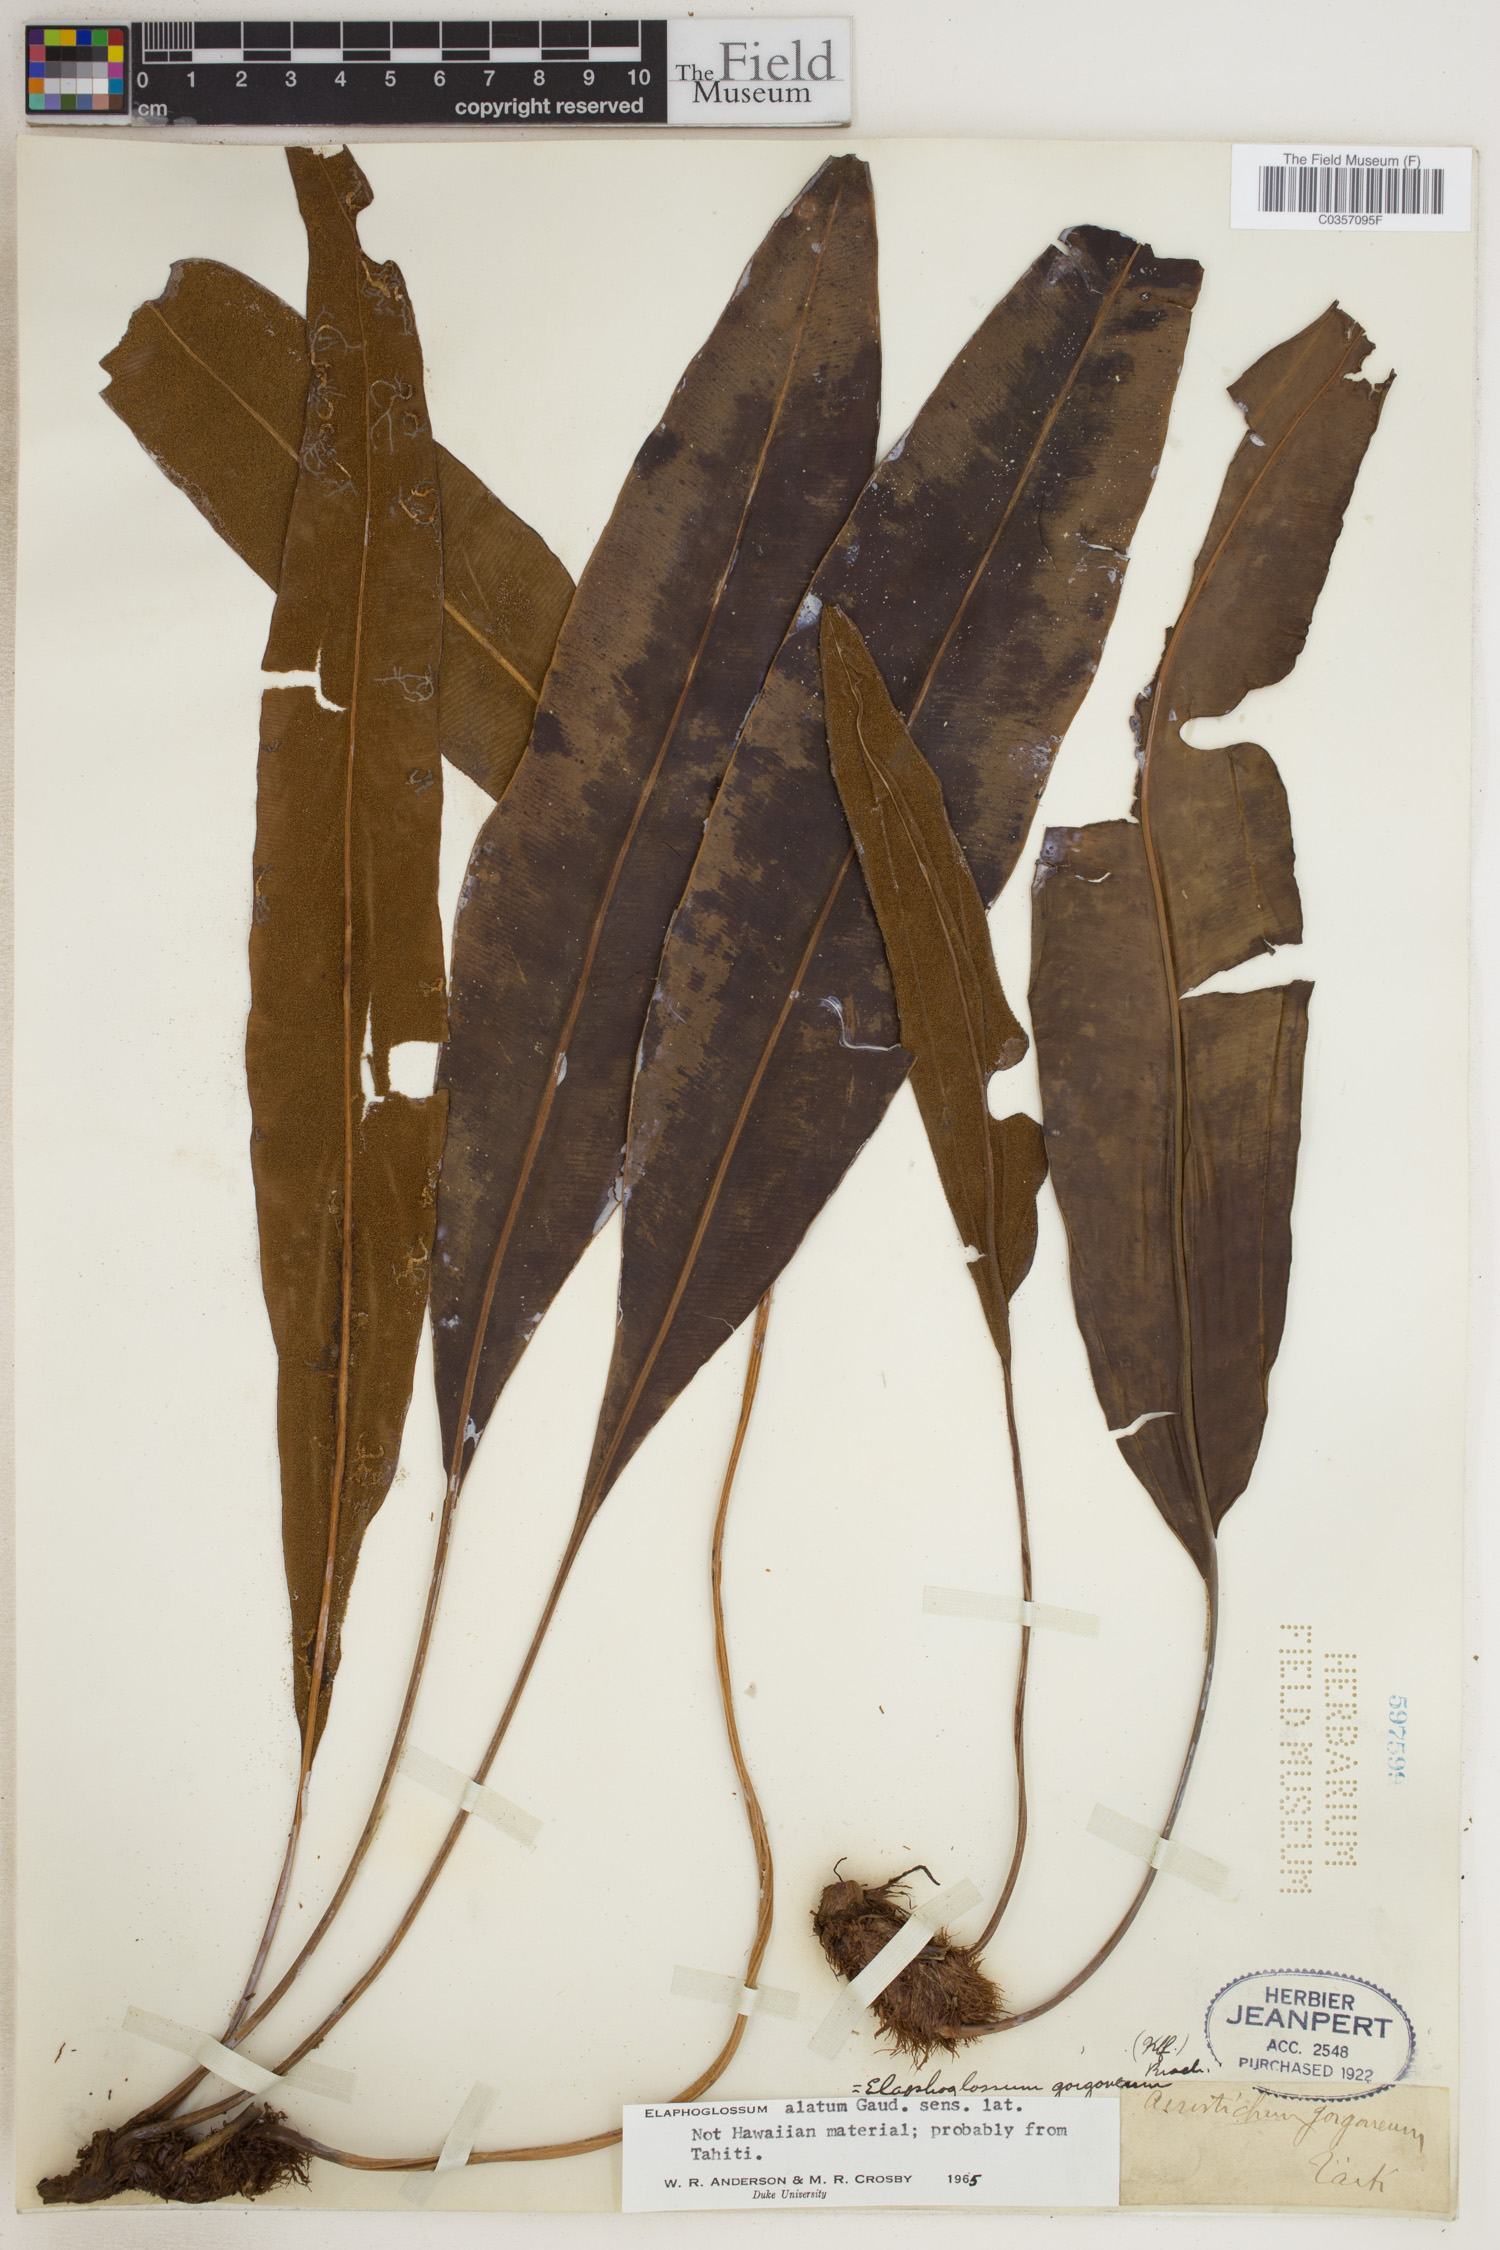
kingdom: Plantae
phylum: Tracheophyta
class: Polypodiopsida
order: Polypodiales
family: Dryopteridaceae
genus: Elaphoglossum
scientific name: Elaphoglossum gorgoneum
